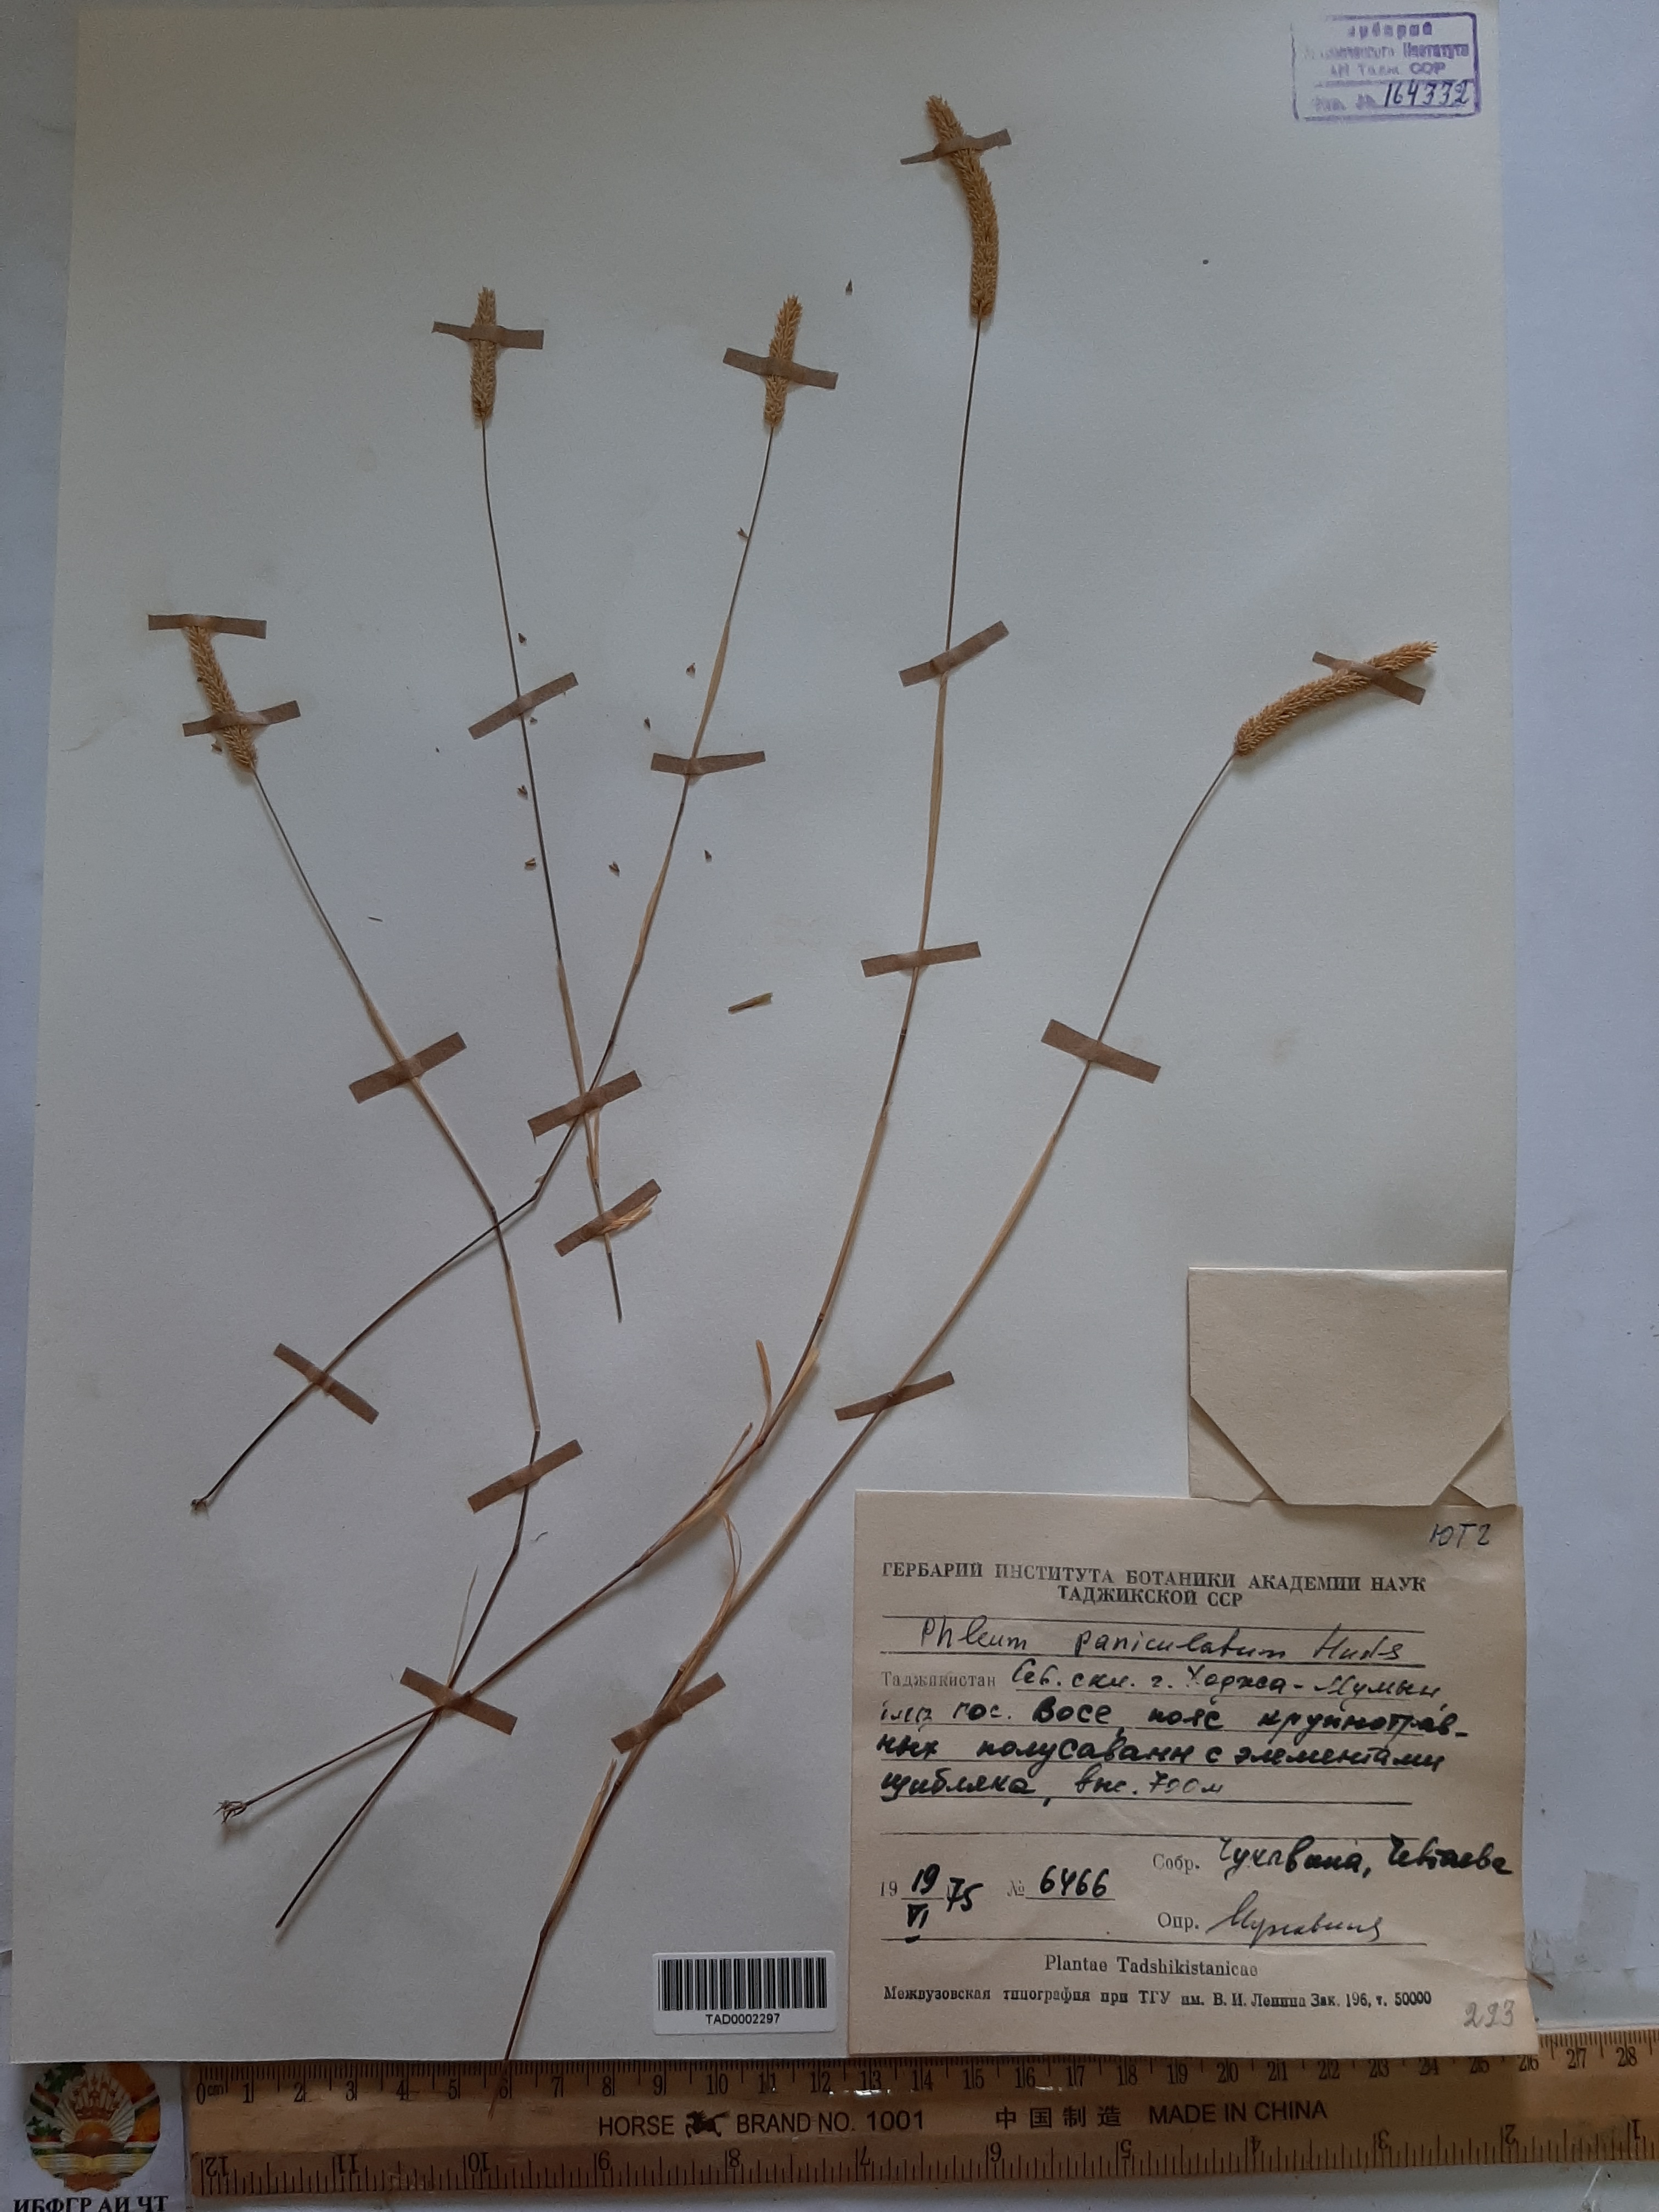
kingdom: Plantae
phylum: Tracheophyta
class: Liliopsida
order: Poales
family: Poaceae
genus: Phleum
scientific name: Phleum paniculatum
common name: British timothy
